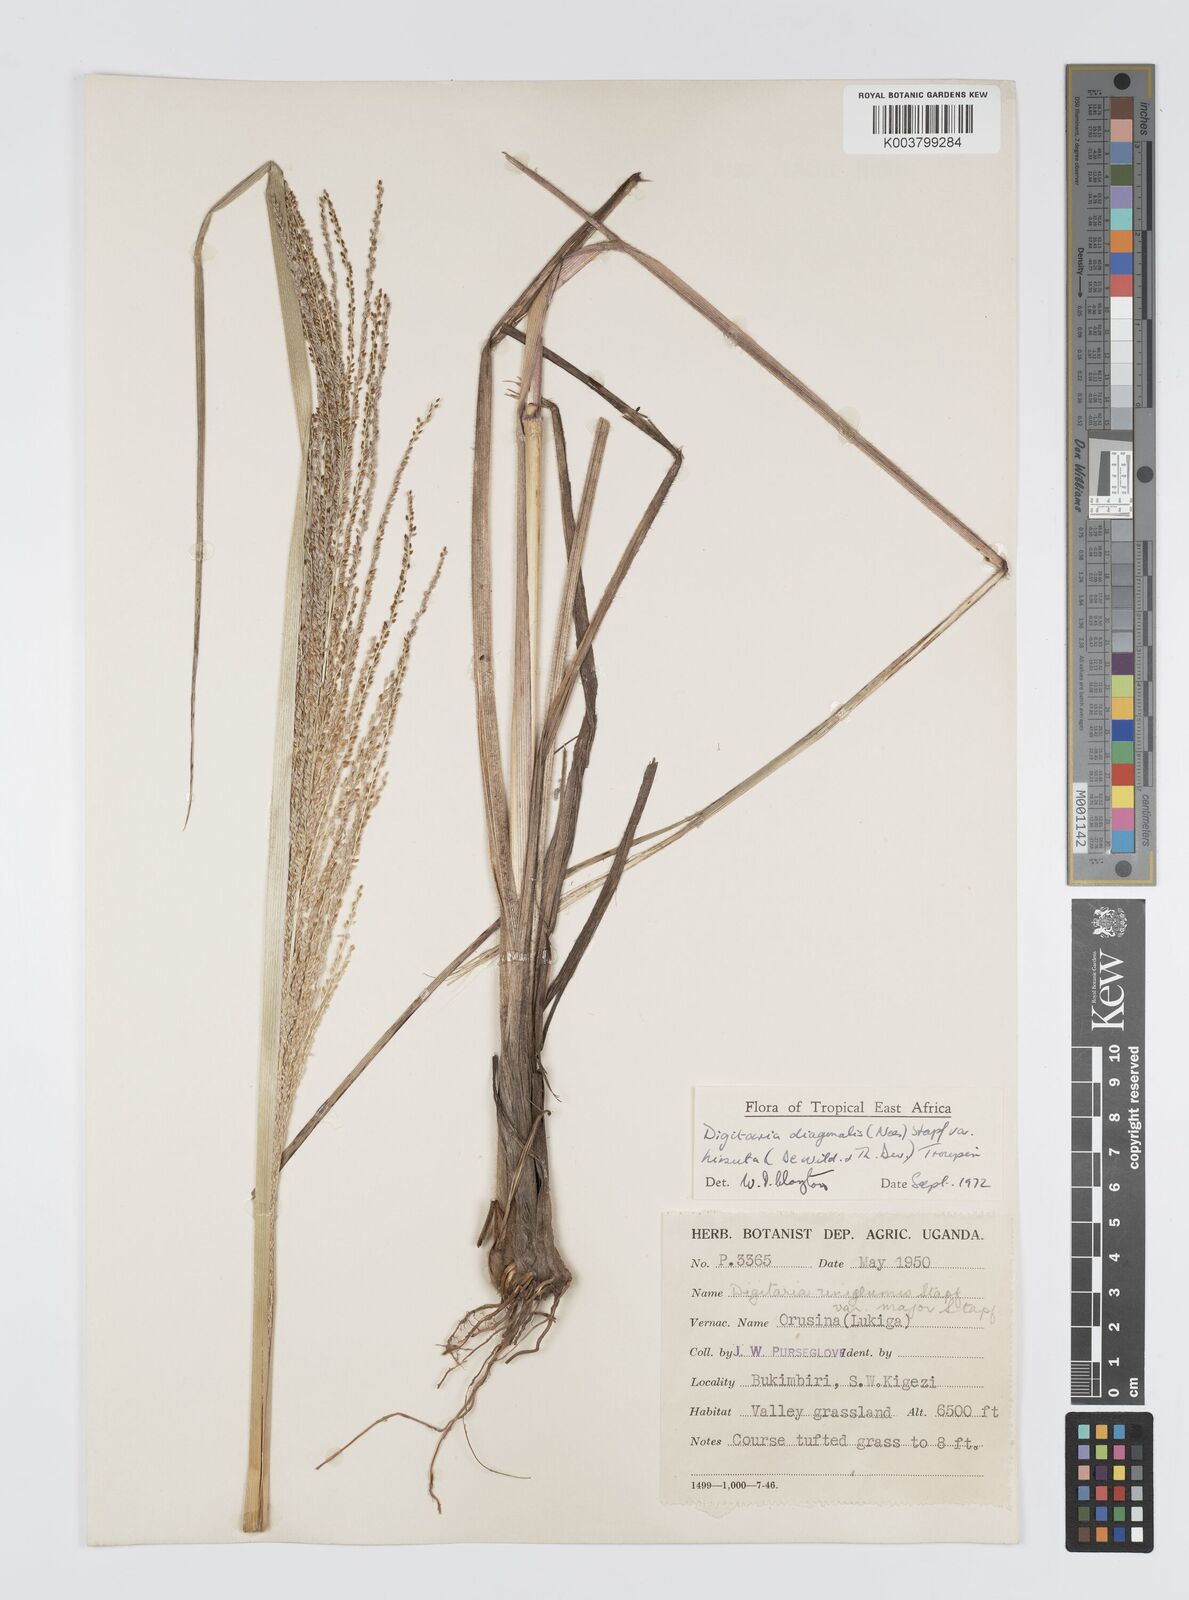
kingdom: Plantae
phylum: Tracheophyta
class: Liliopsida
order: Poales
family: Poaceae
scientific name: Poaceae
